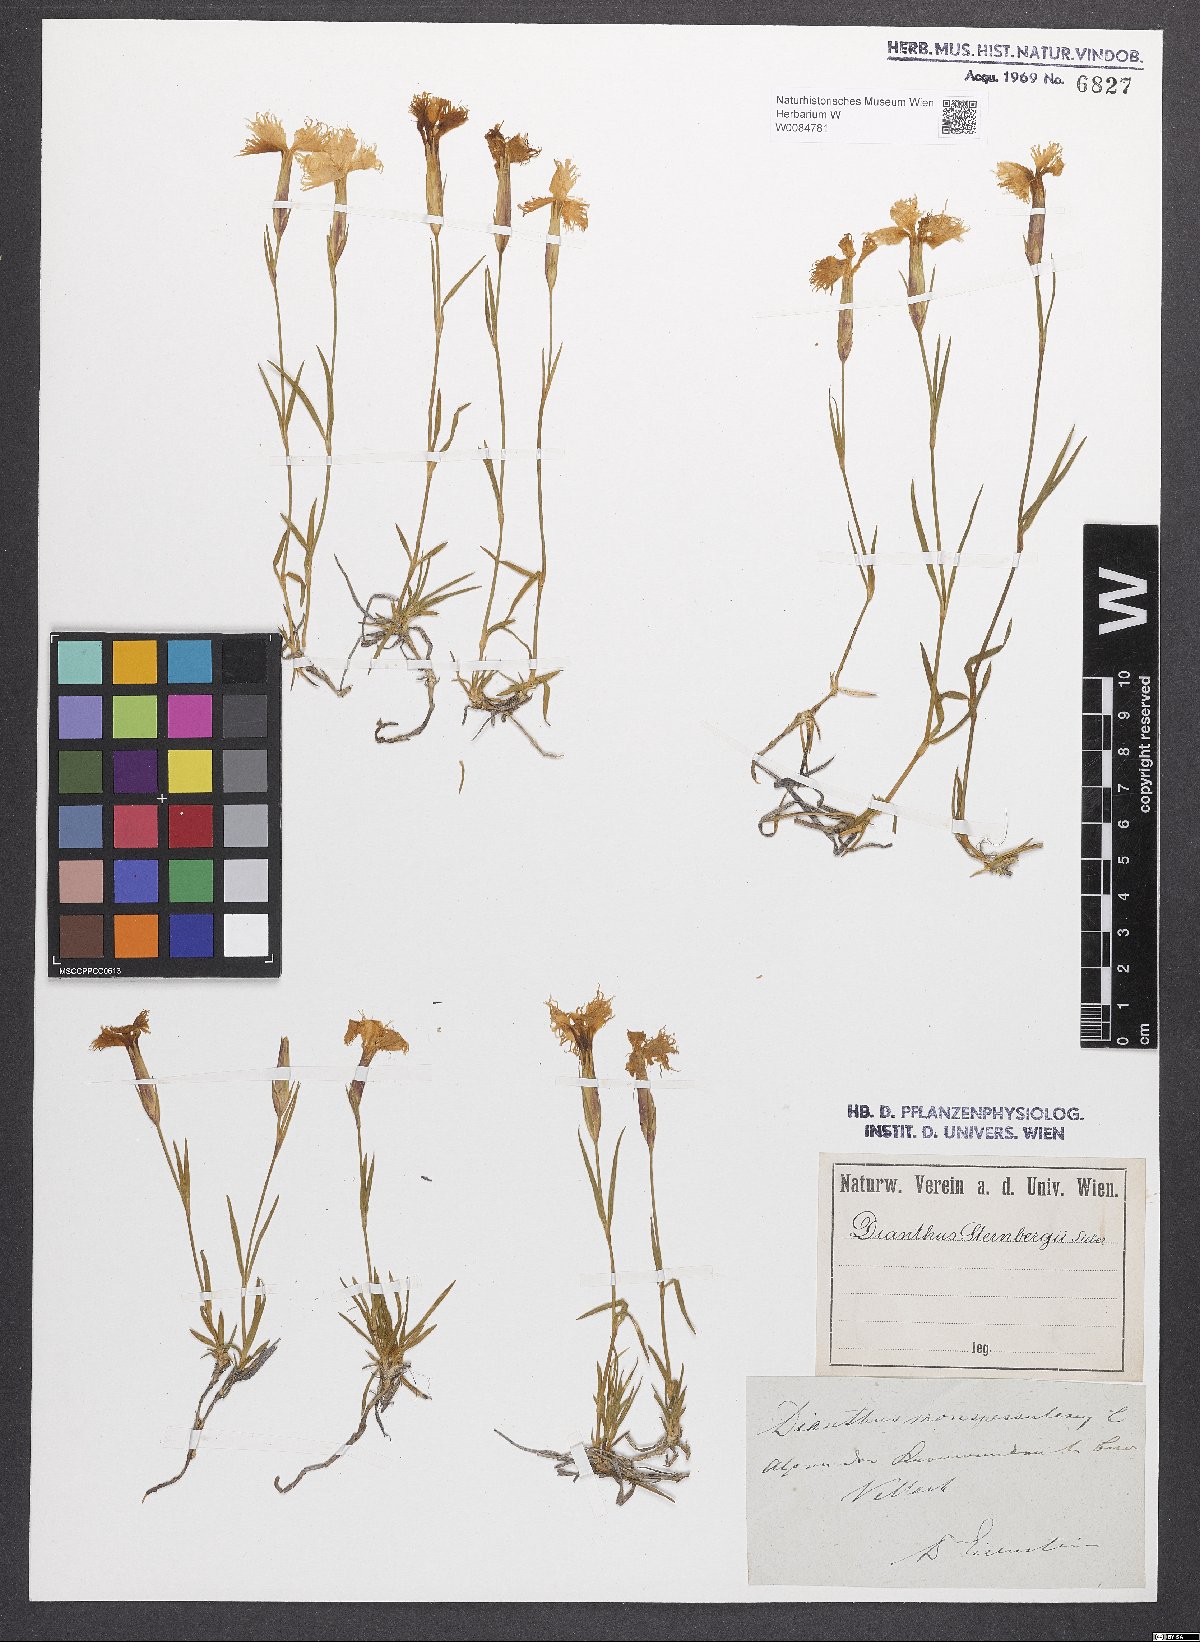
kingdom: Plantae
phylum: Tracheophyta
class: Magnoliopsida
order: Caryophyllales
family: Caryophyllaceae
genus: Dianthus
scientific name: Dianthus monspessulanus
